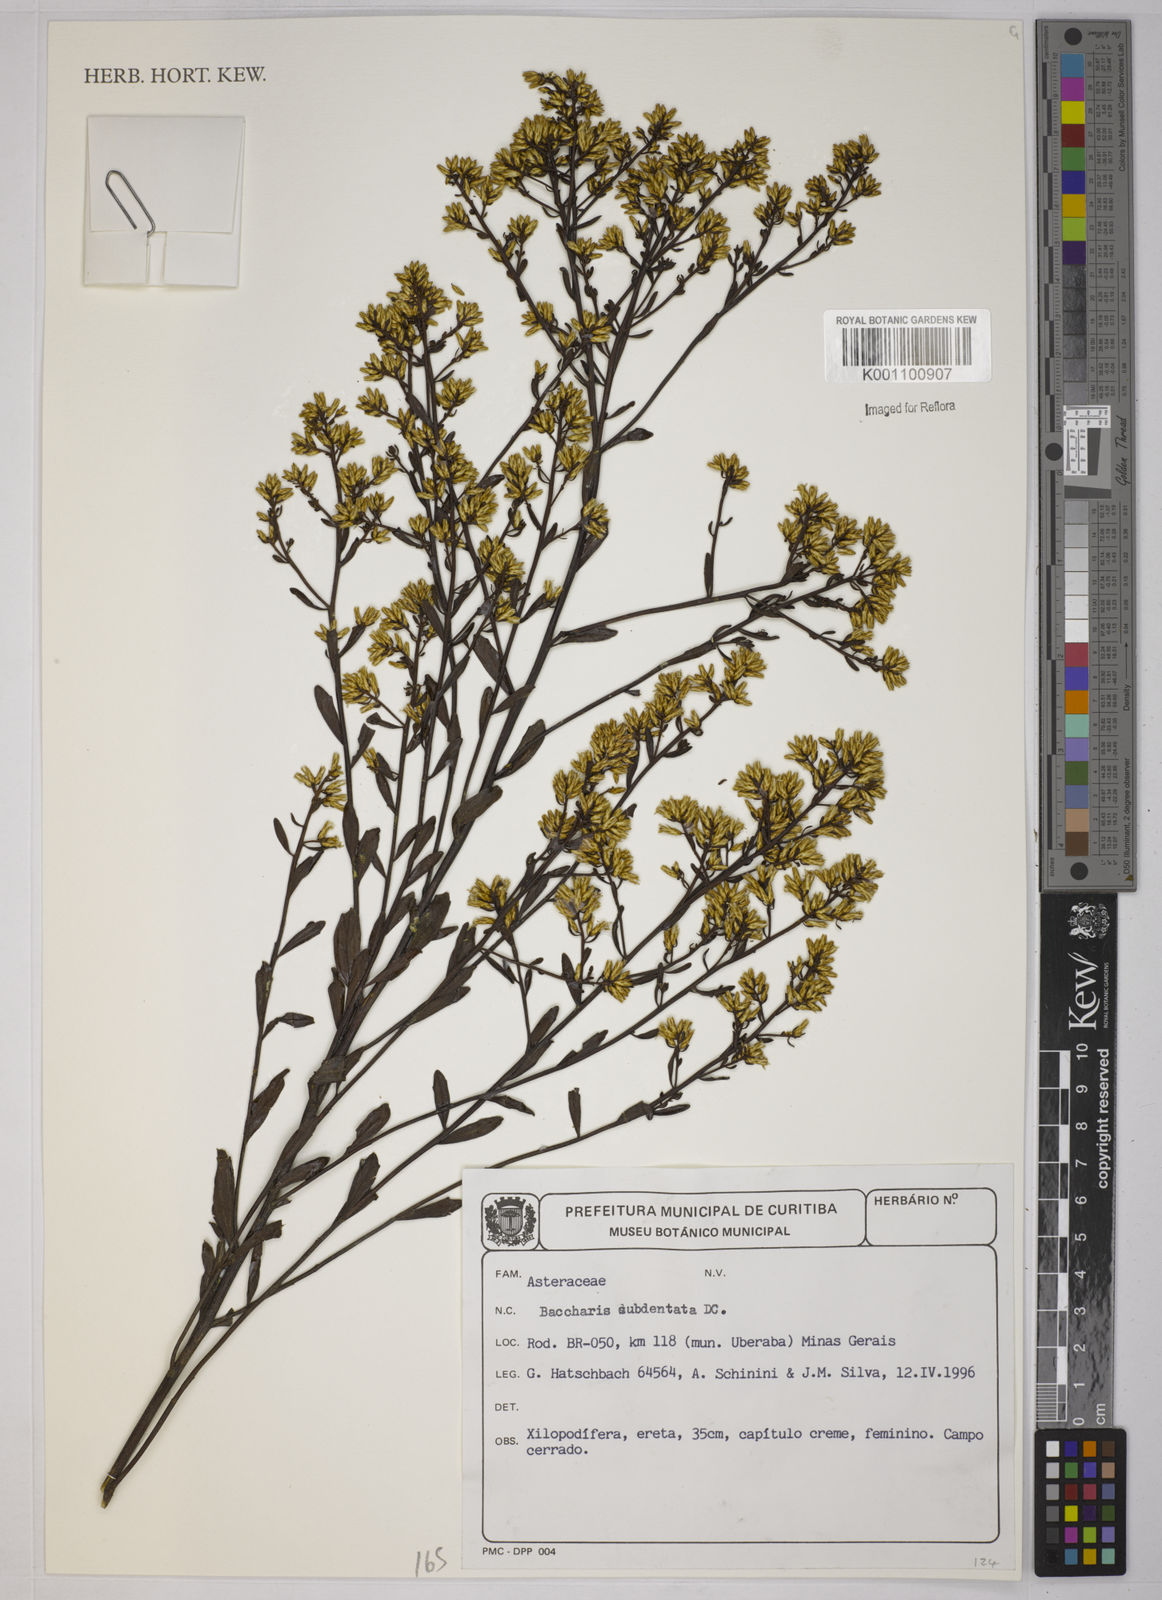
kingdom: Plantae
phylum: Tracheophyta
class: Magnoliopsida
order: Asterales
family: Asteraceae
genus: Baccharis
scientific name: Baccharis subdentata
